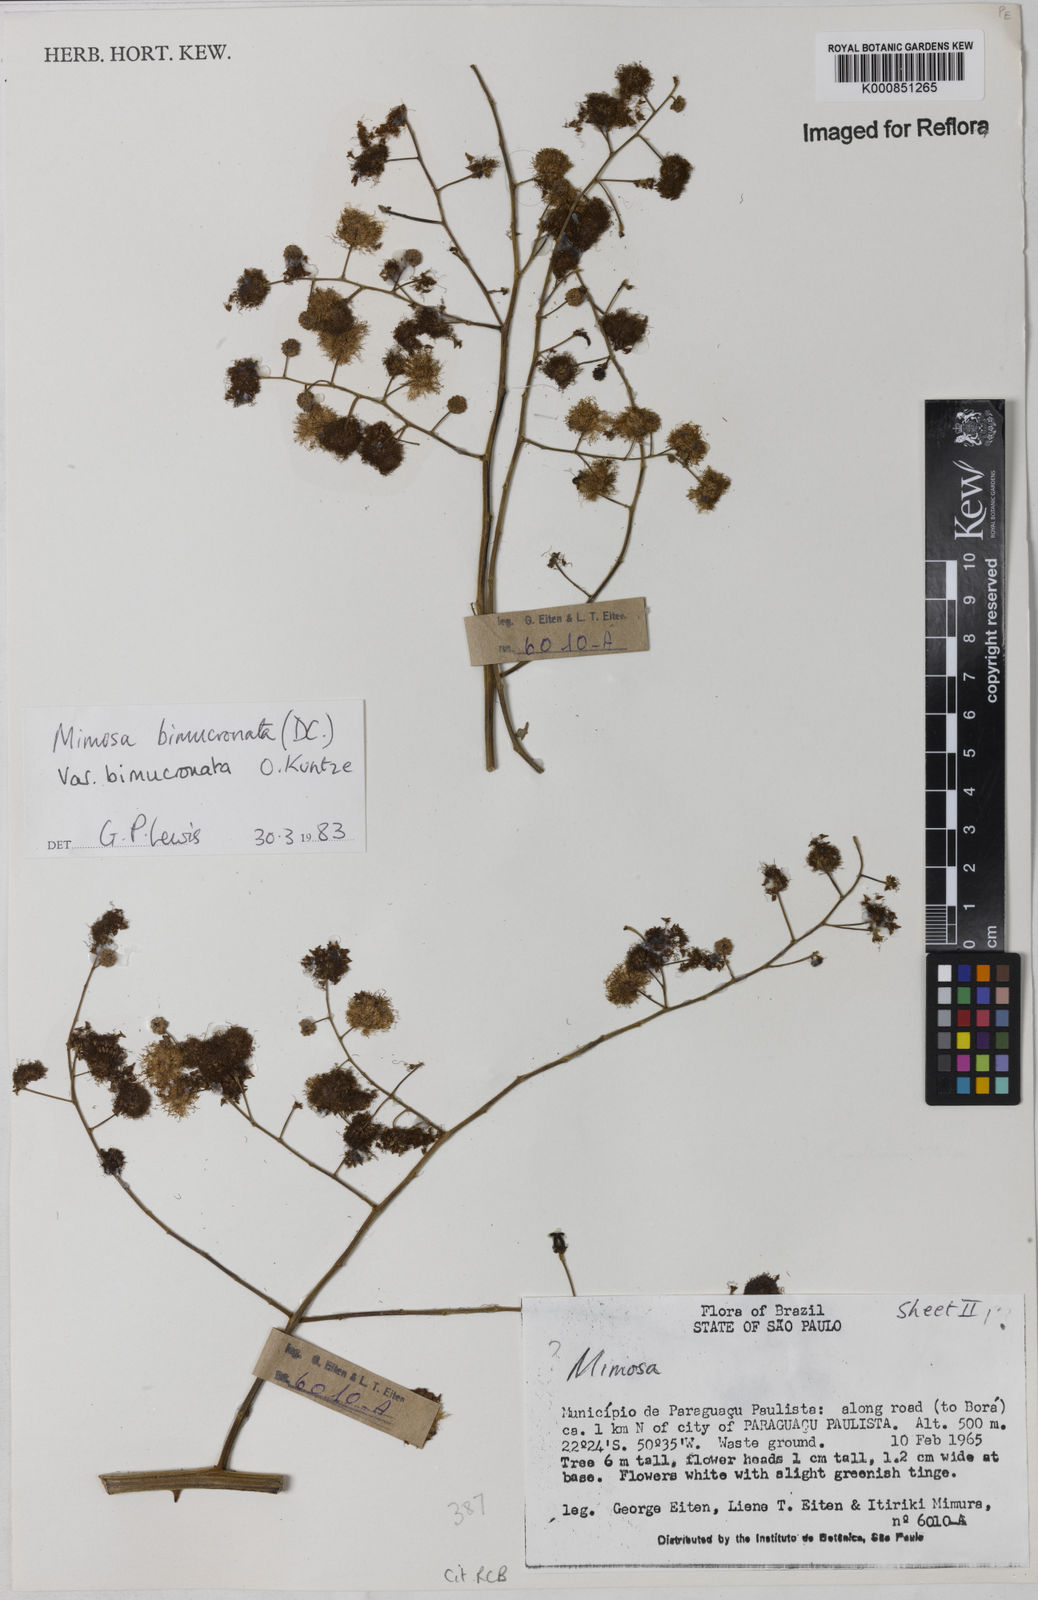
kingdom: Plantae
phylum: Tracheophyta
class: Magnoliopsida
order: Fabales
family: Fabaceae
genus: Mimosa
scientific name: Mimosa bimucronata
